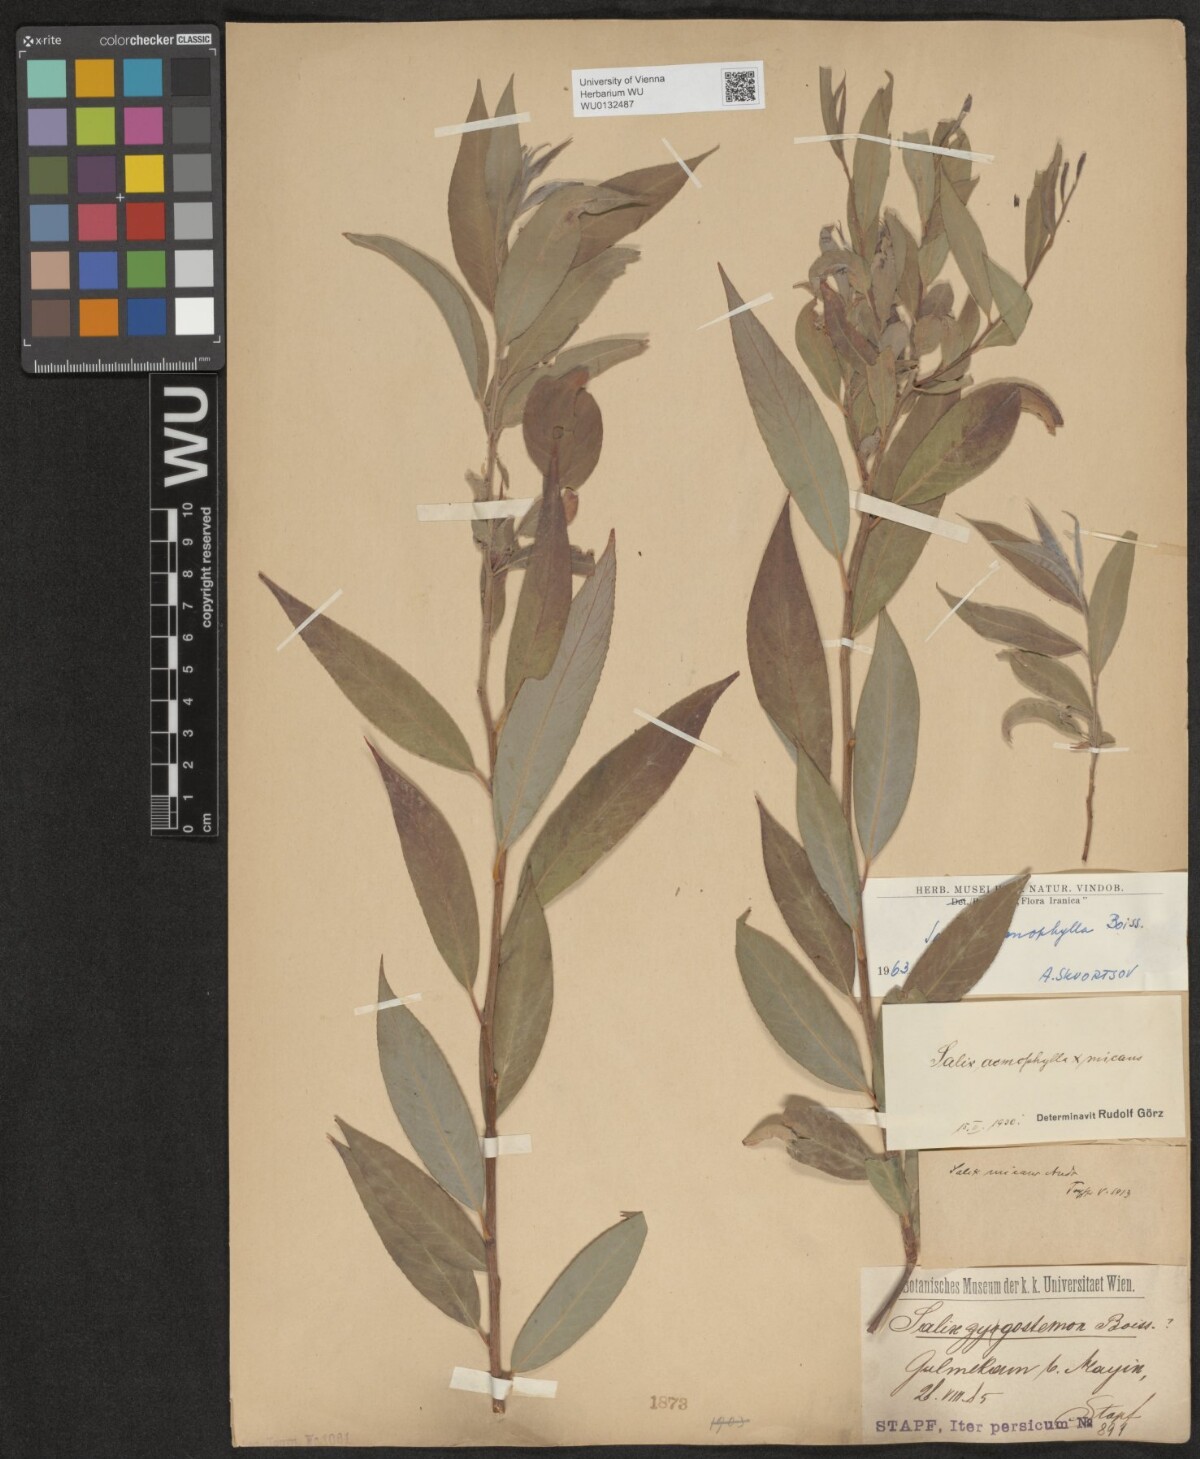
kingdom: Plantae
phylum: Tracheophyta
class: Magnoliopsida
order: Malpighiales
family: Salicaceae
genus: Salix
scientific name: Salix acmophylla
